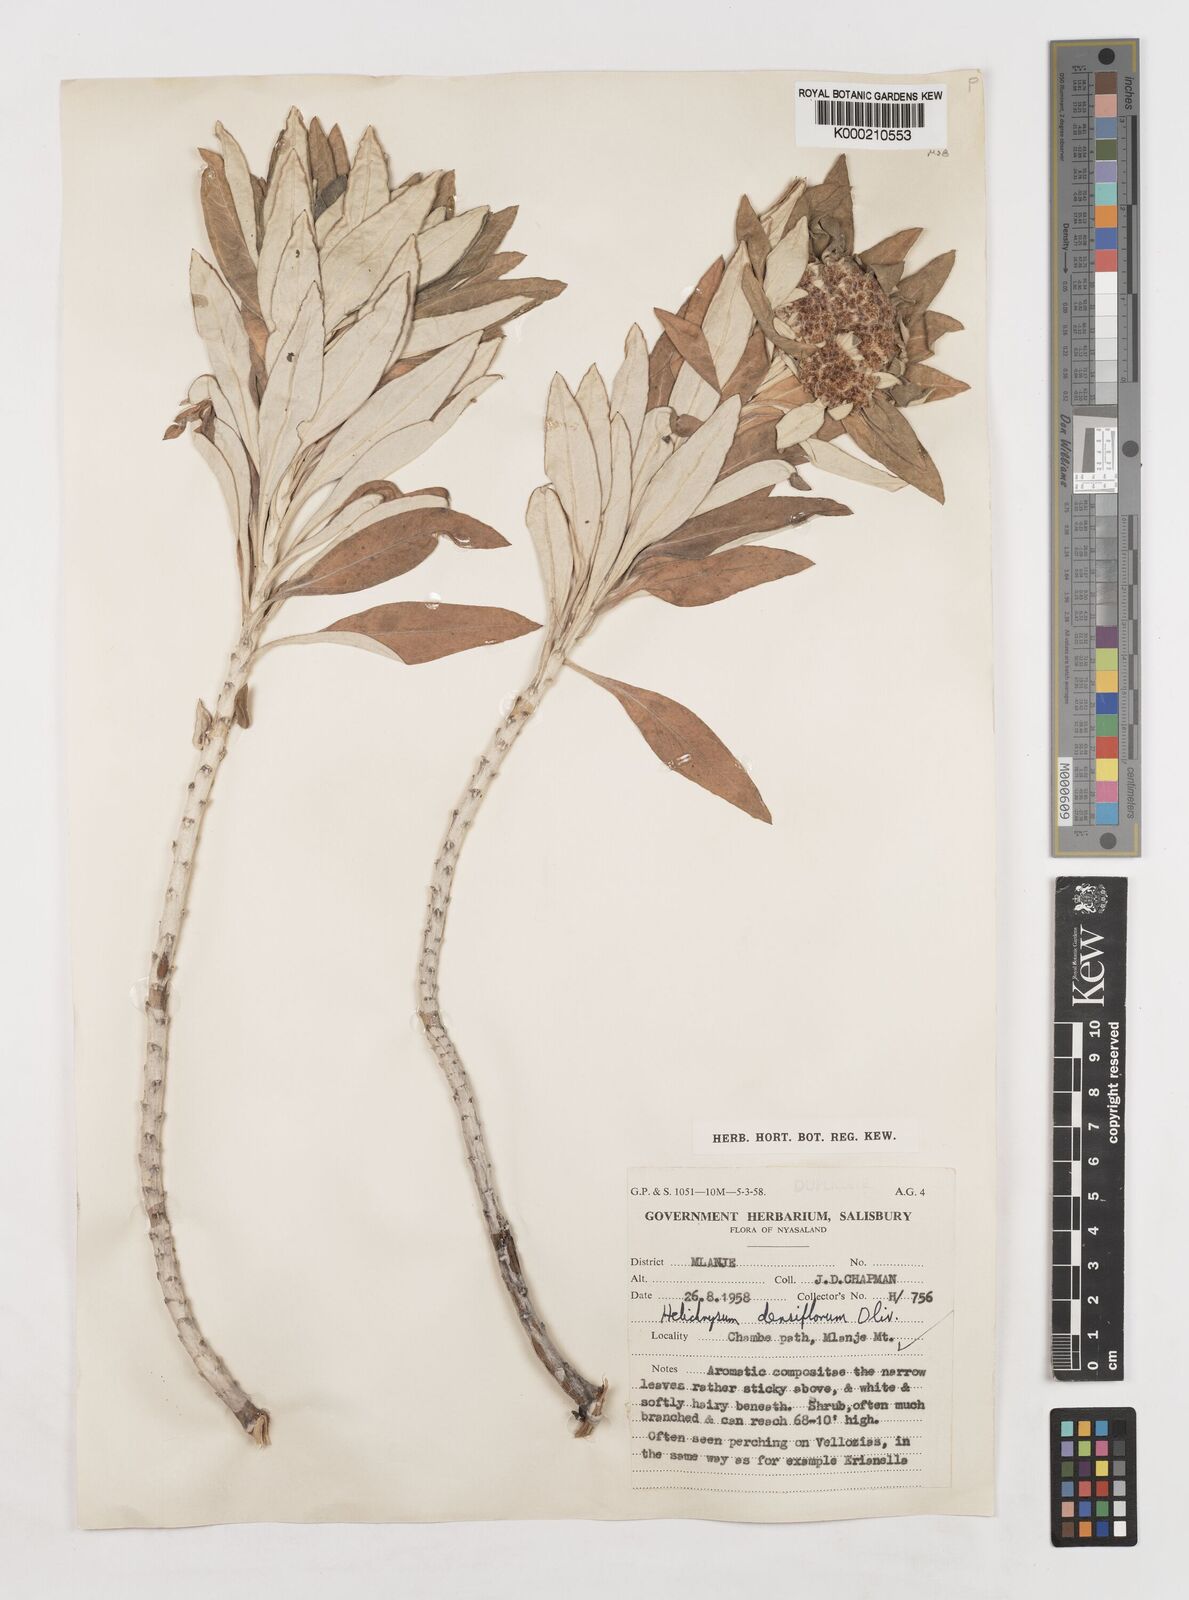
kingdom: Plantae
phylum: Tracheophyta
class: Magnoliopsida
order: Asterales
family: Asteraceae
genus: Helichrysum
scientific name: Helichrysum densiflorum
